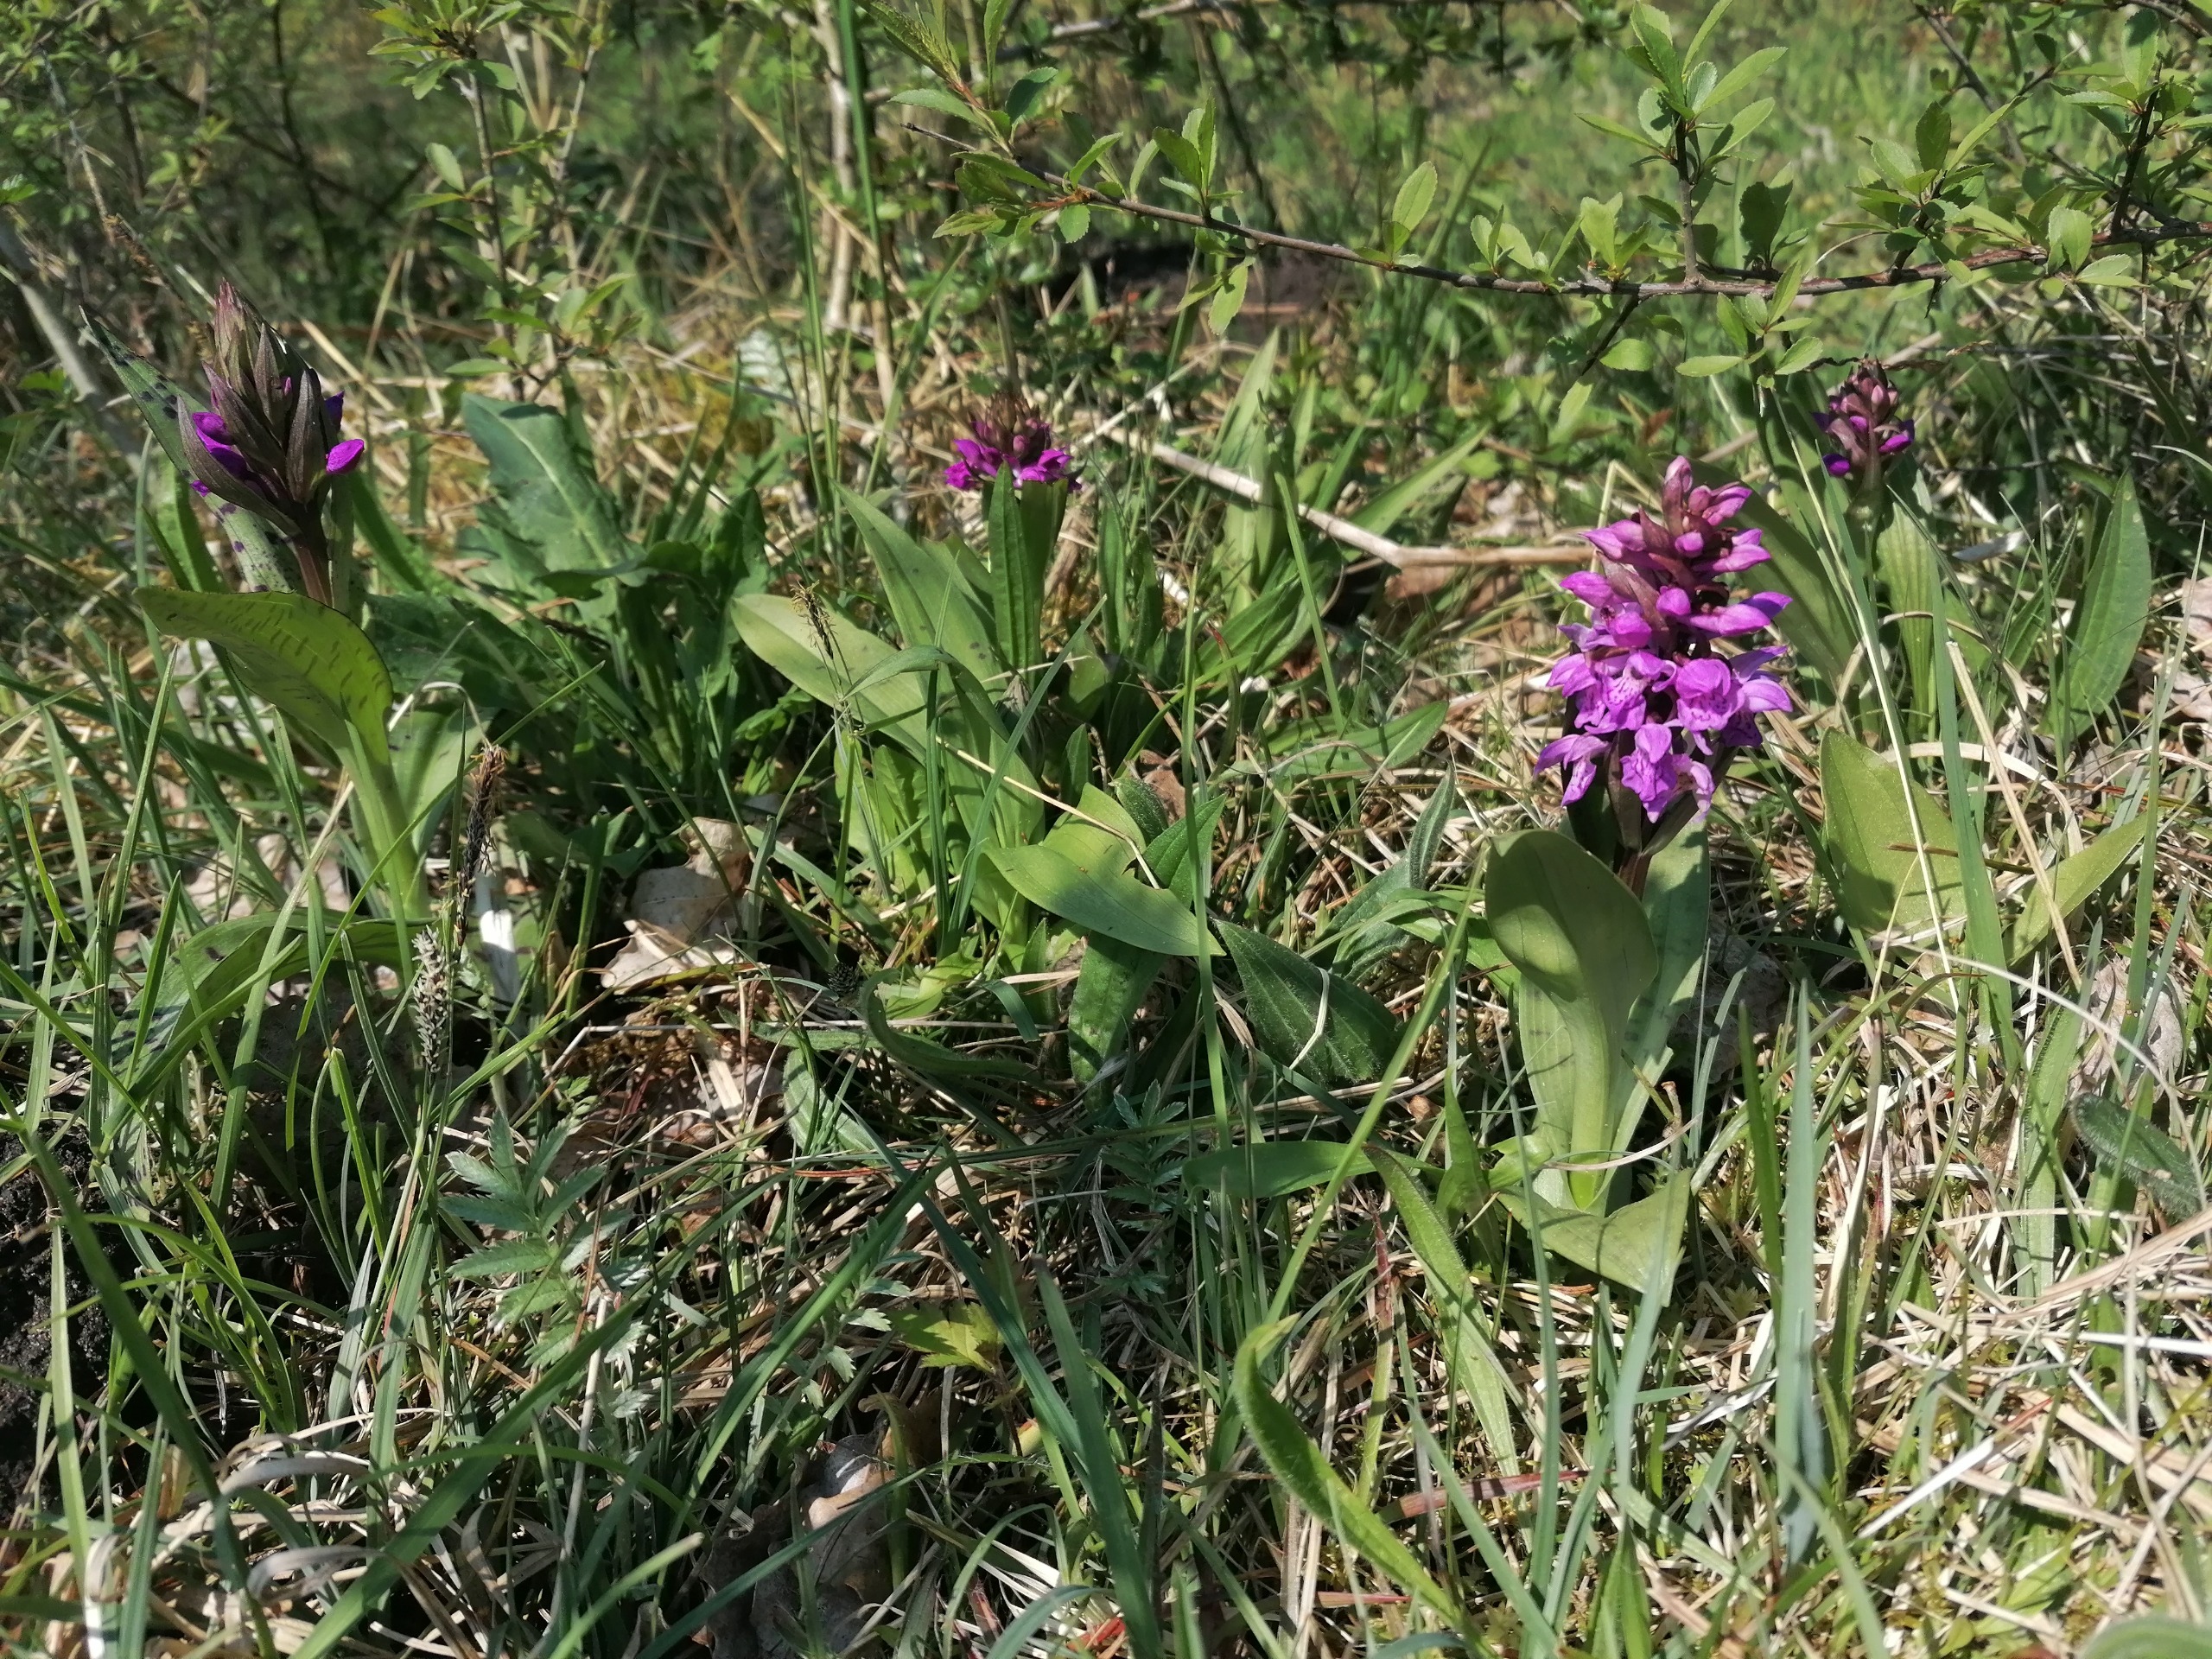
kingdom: Plantae
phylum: Tracheophyta
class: Liliopsida
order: Asparagales
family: Orchidaceae
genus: Dactylorhiza
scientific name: Dactylorhiza majalis
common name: Maj-gøgeurt
